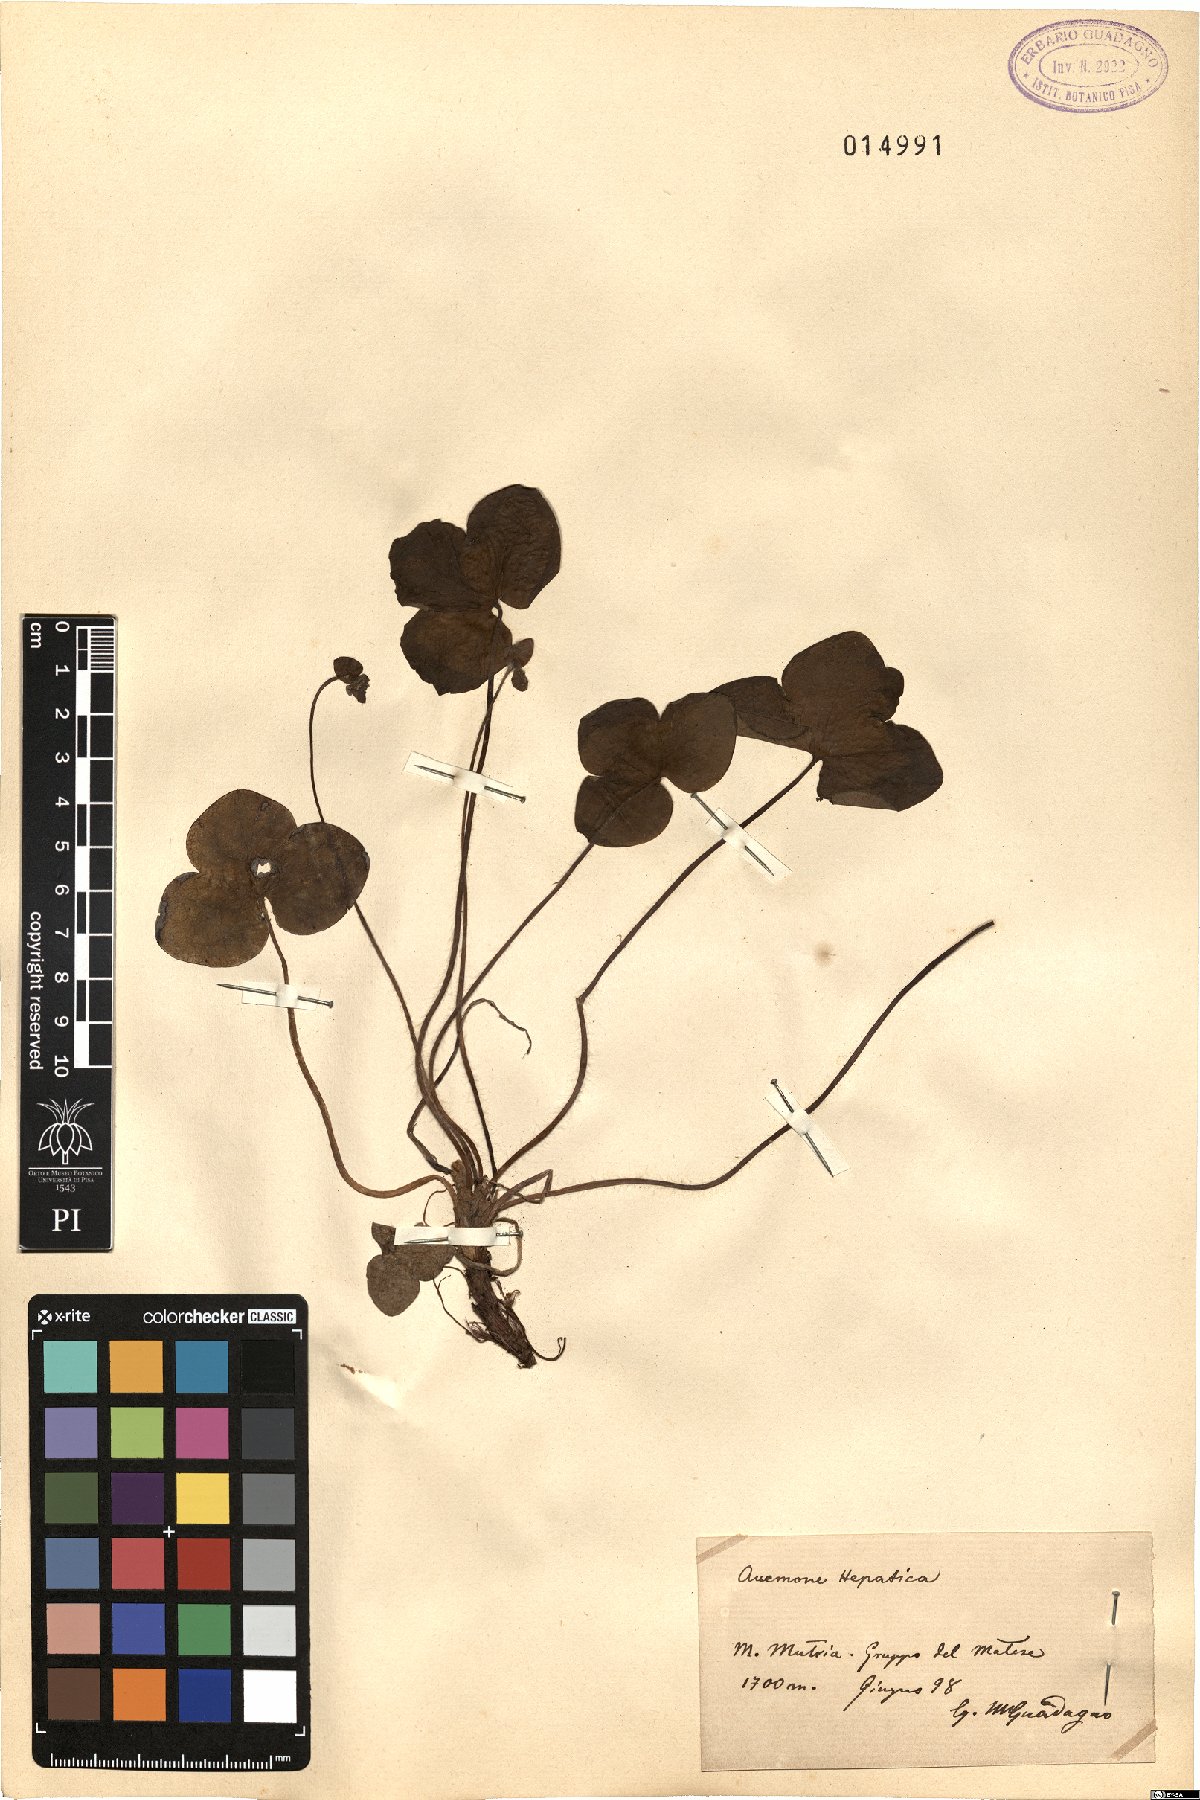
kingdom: Plantae
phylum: Tracheophyta
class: Magnoliopsida
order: Ranunculales
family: Ranunculaceae
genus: Hepatica
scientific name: Hepatica nobilis
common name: Liverleaf
